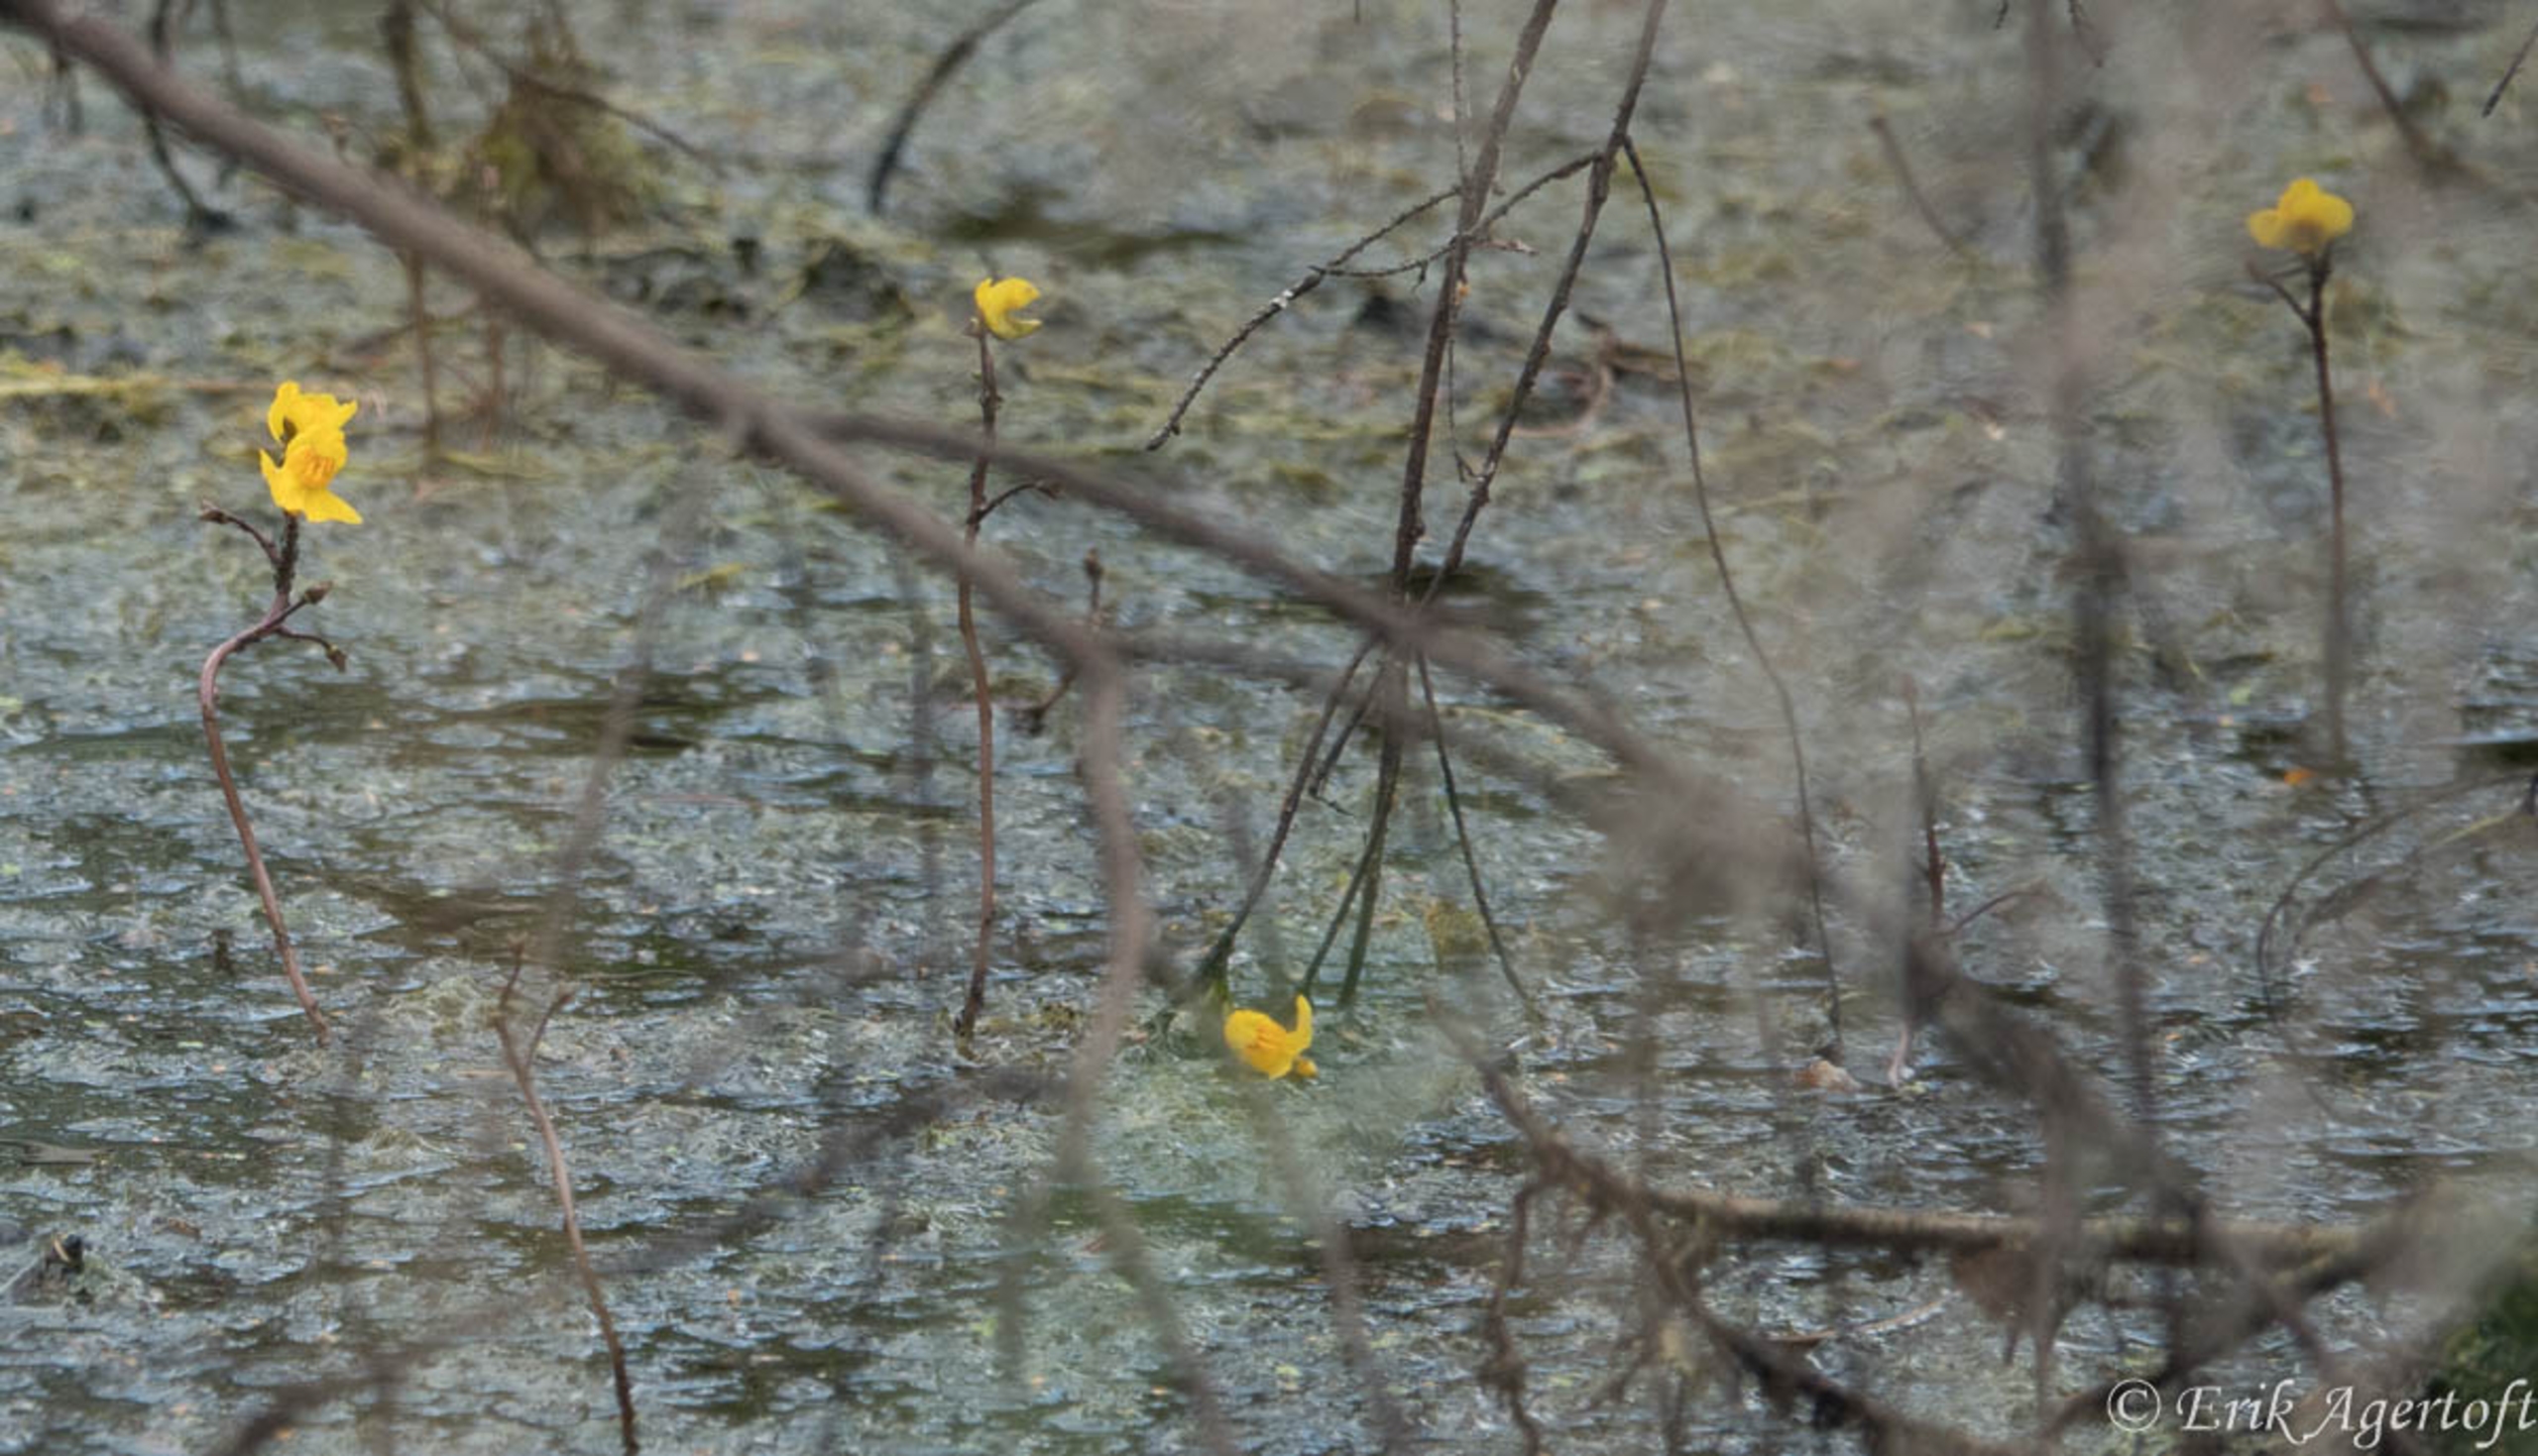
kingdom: Plantae
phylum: Tracheophyta
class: Magnoliopsida
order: Lamiales
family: Lentibulariaceae
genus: Utricularia
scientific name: Utricularia australis
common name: Slank blærerod
